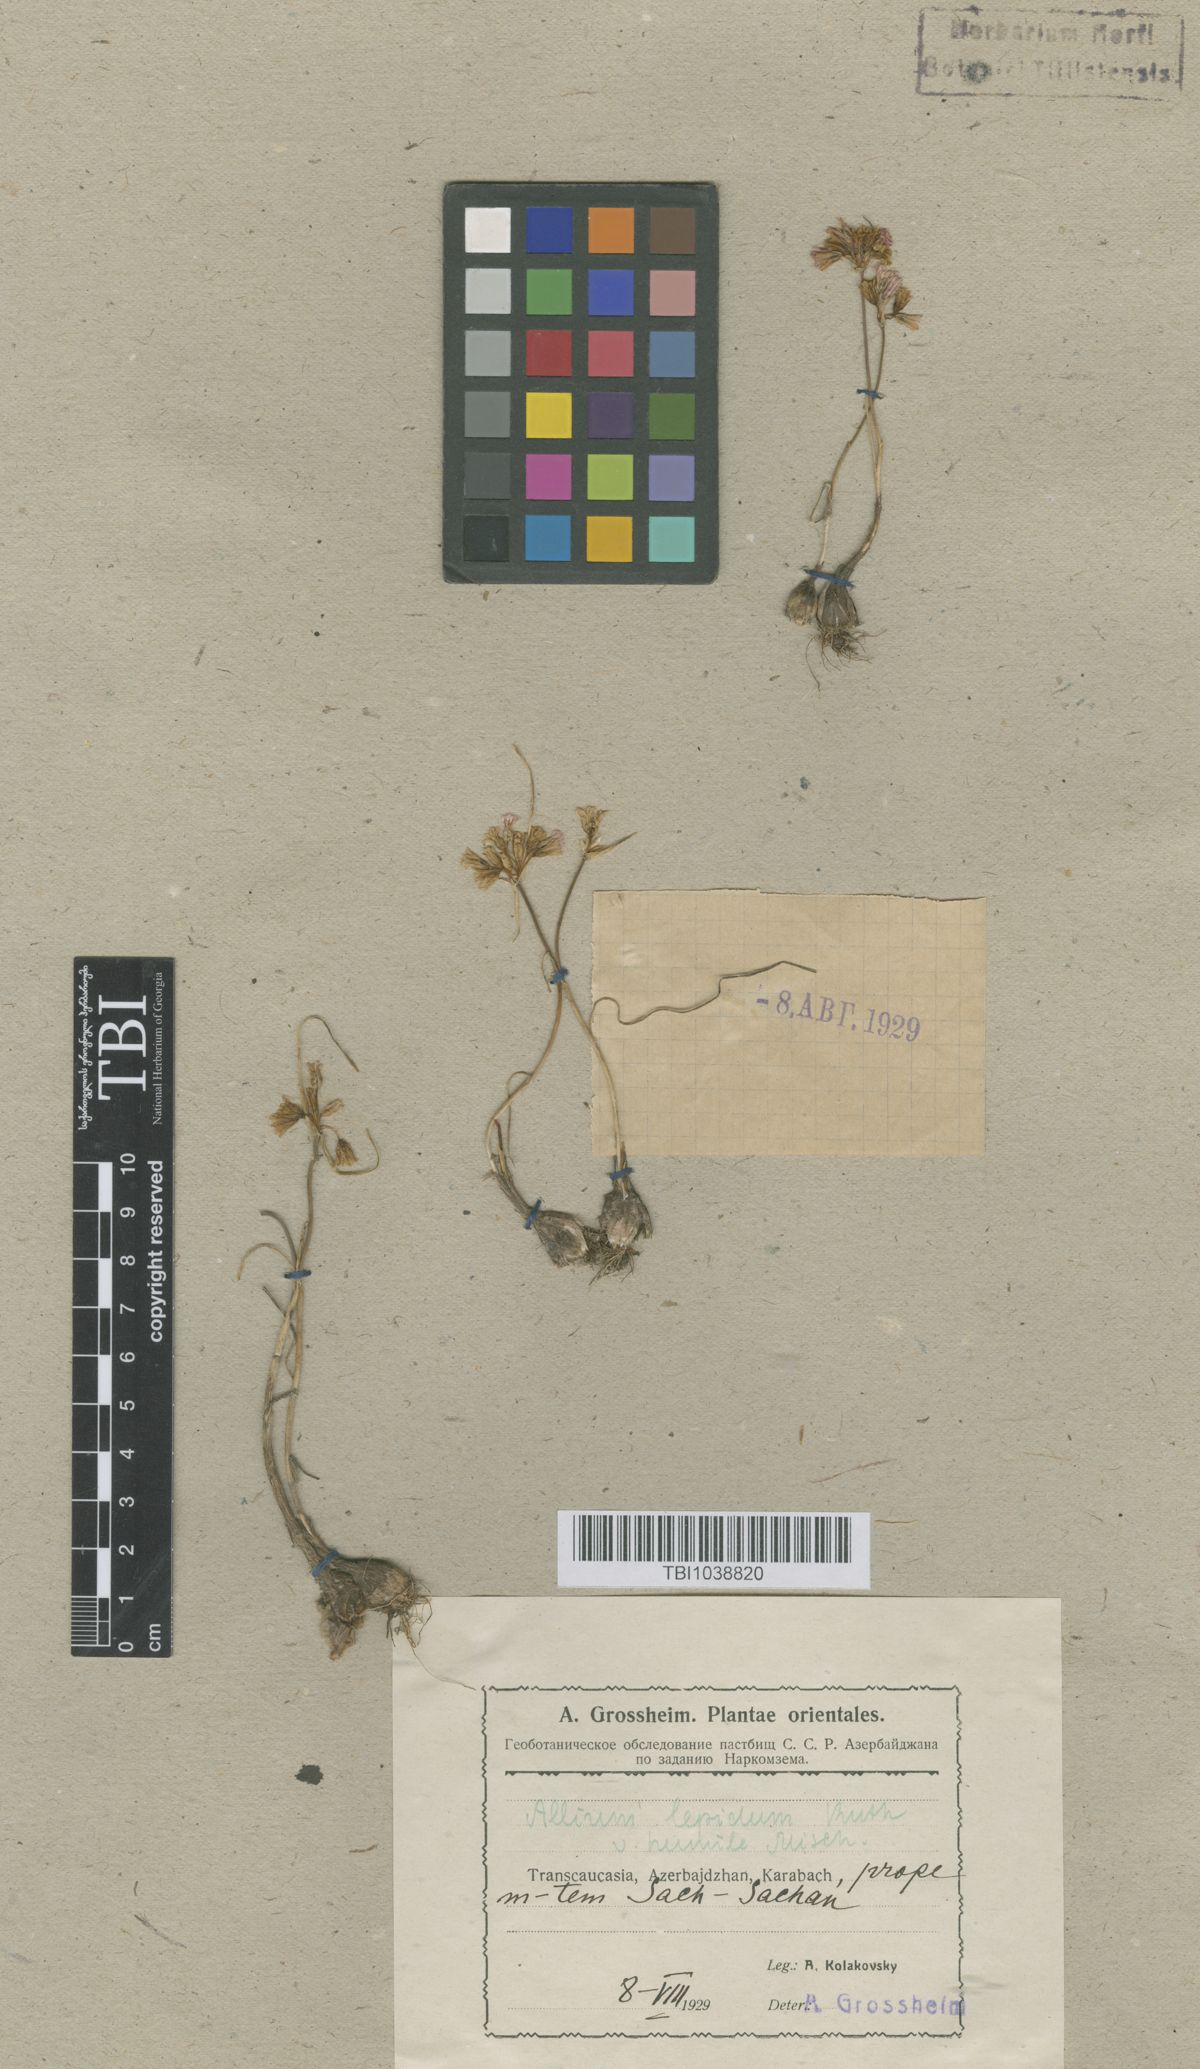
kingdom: Plantae
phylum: Tracheophyta
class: Liliopsida
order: Asparagales
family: Amaryllidaceae
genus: Allium
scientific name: Allium kunthianum
